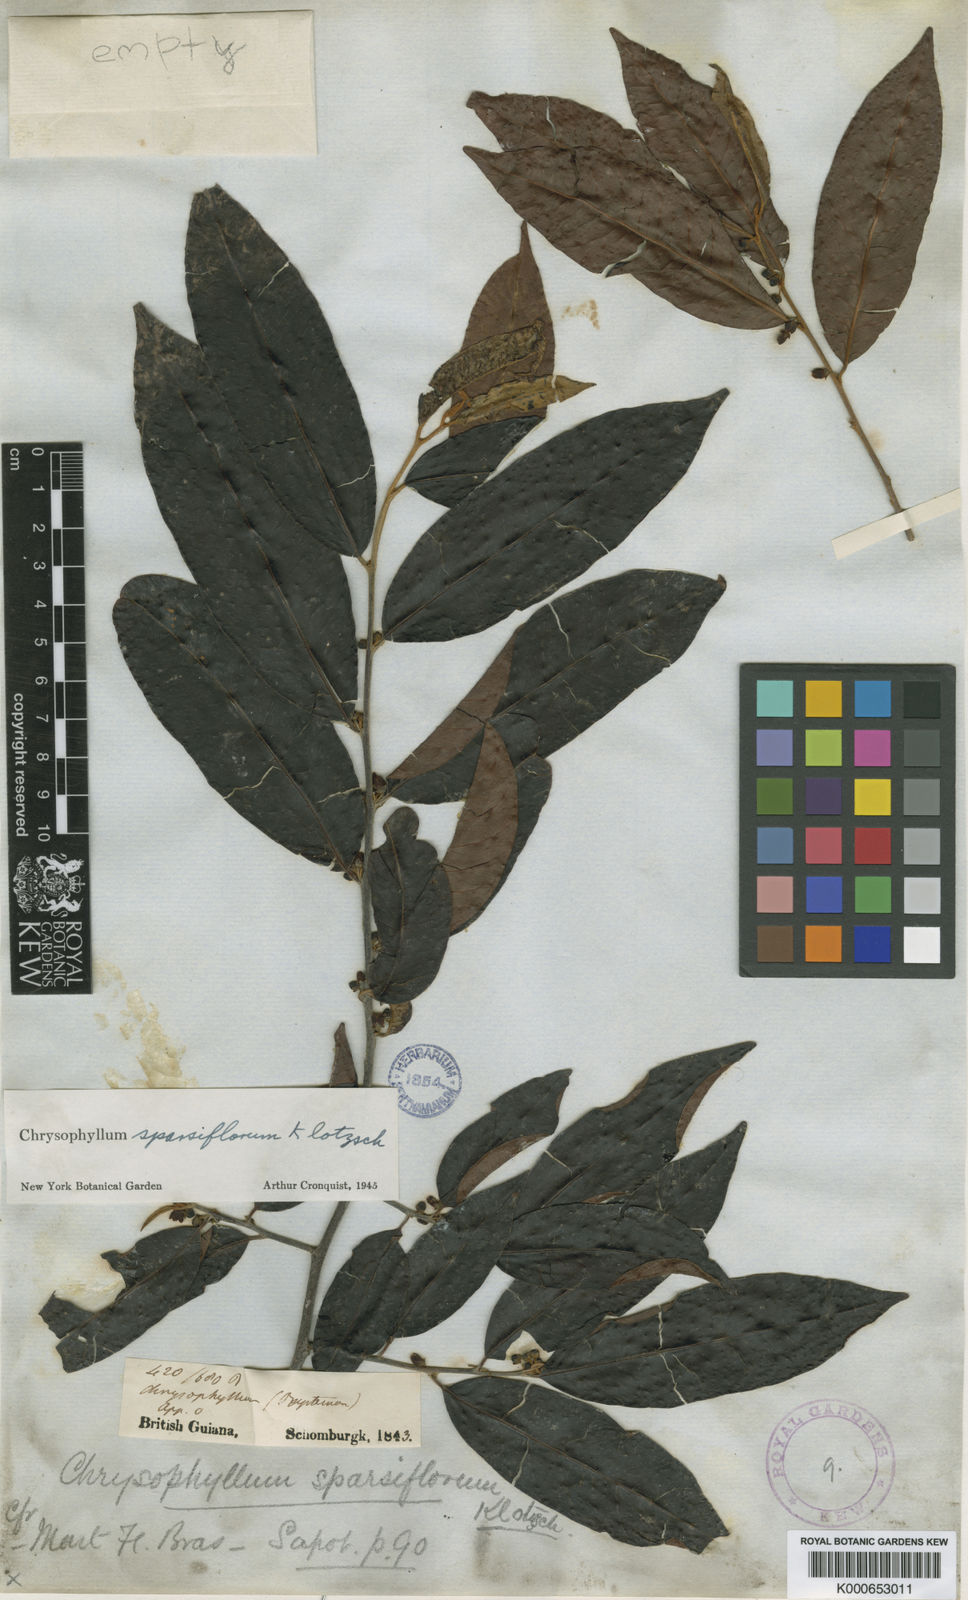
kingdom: Plantae
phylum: Tracheophyta
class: Magnoliopsida
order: Ericales
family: Sapotaceae
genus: Chrysophyllum
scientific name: Chrysophyllum sparsiflorum
